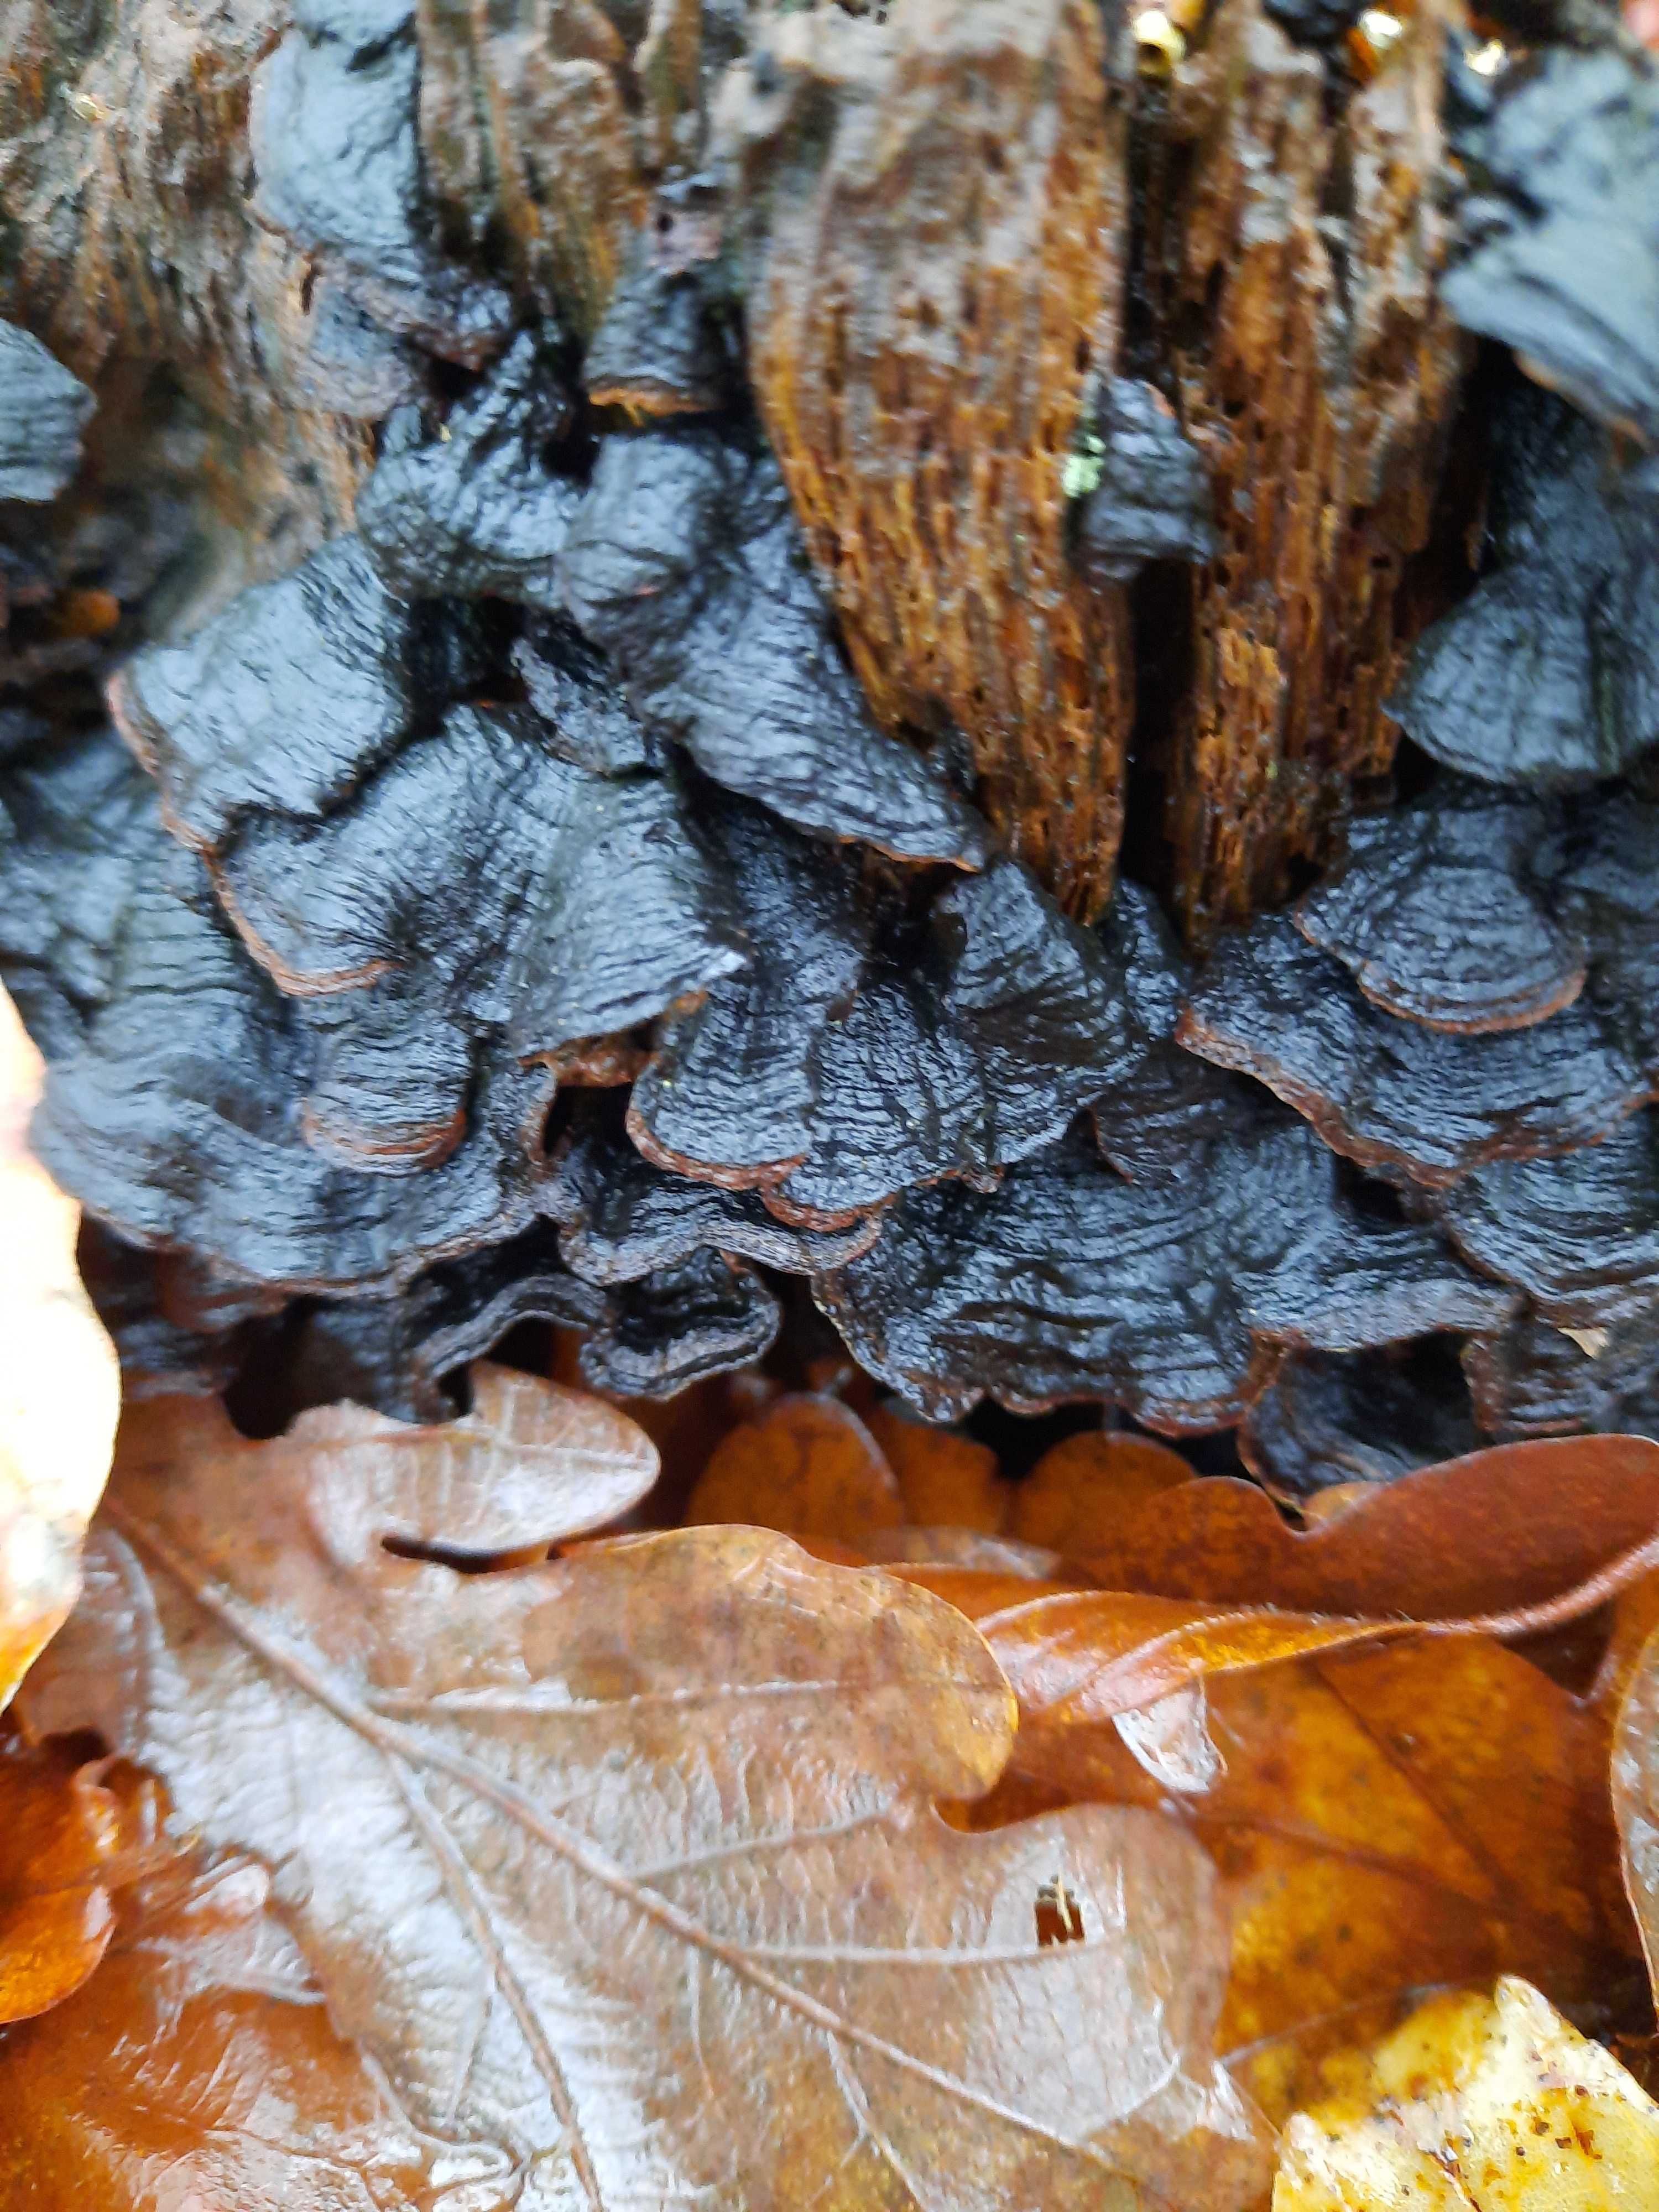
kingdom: Fungi
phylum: Basidiomycota
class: Agaricomycetes
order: Hymenochaetales
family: Hymenochaetaceae
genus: Hymenochaete
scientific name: Hymenochaete rubiginosa
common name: stiv ruslædersvamp
